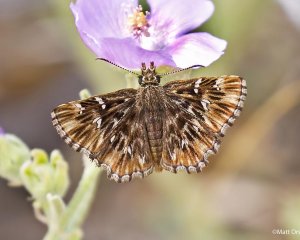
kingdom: Animalia
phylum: Arthropoda
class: Insecta
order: Lepidoptera
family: Hesperiidae
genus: Celotes
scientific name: Celotes nessus
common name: Common Streaky-Skipper
